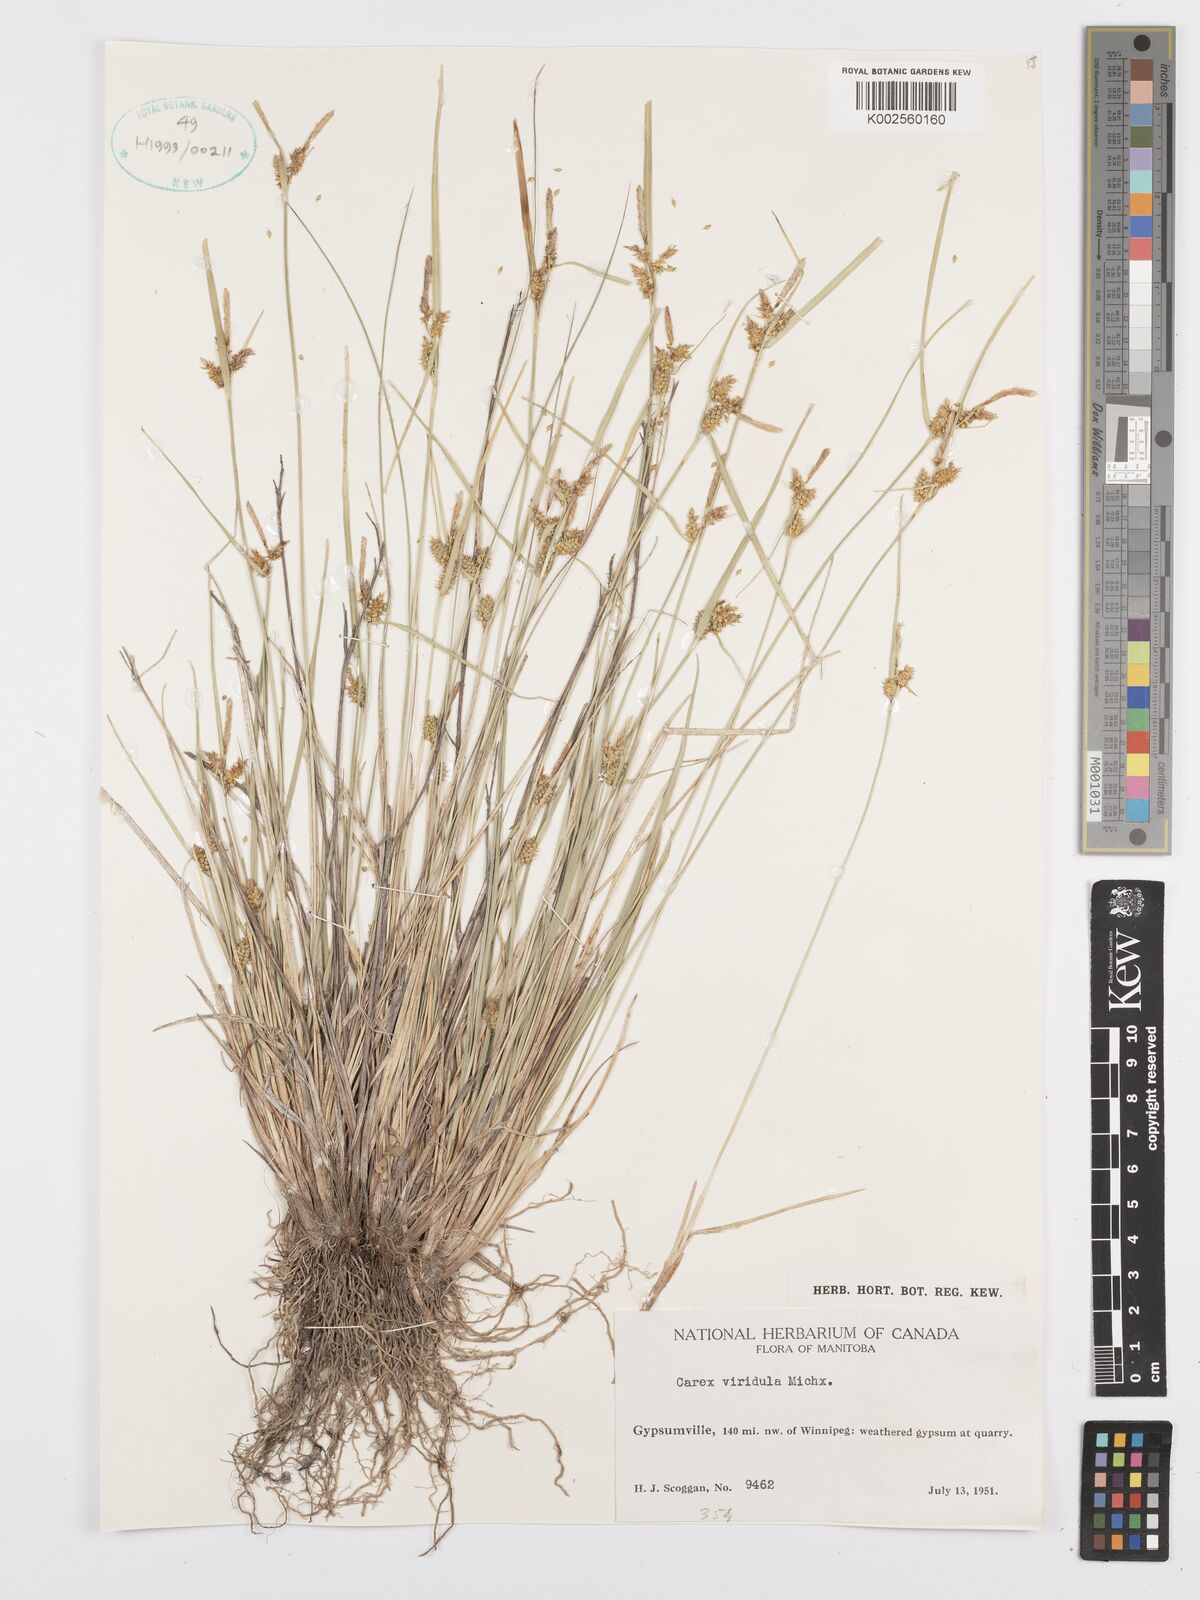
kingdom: Plantae
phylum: Tracheophyta
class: Liliopsida
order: Poales
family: Cyperaceae
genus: Carex
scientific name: Carex oederi
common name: Common & small-fruited yellow-sedge
